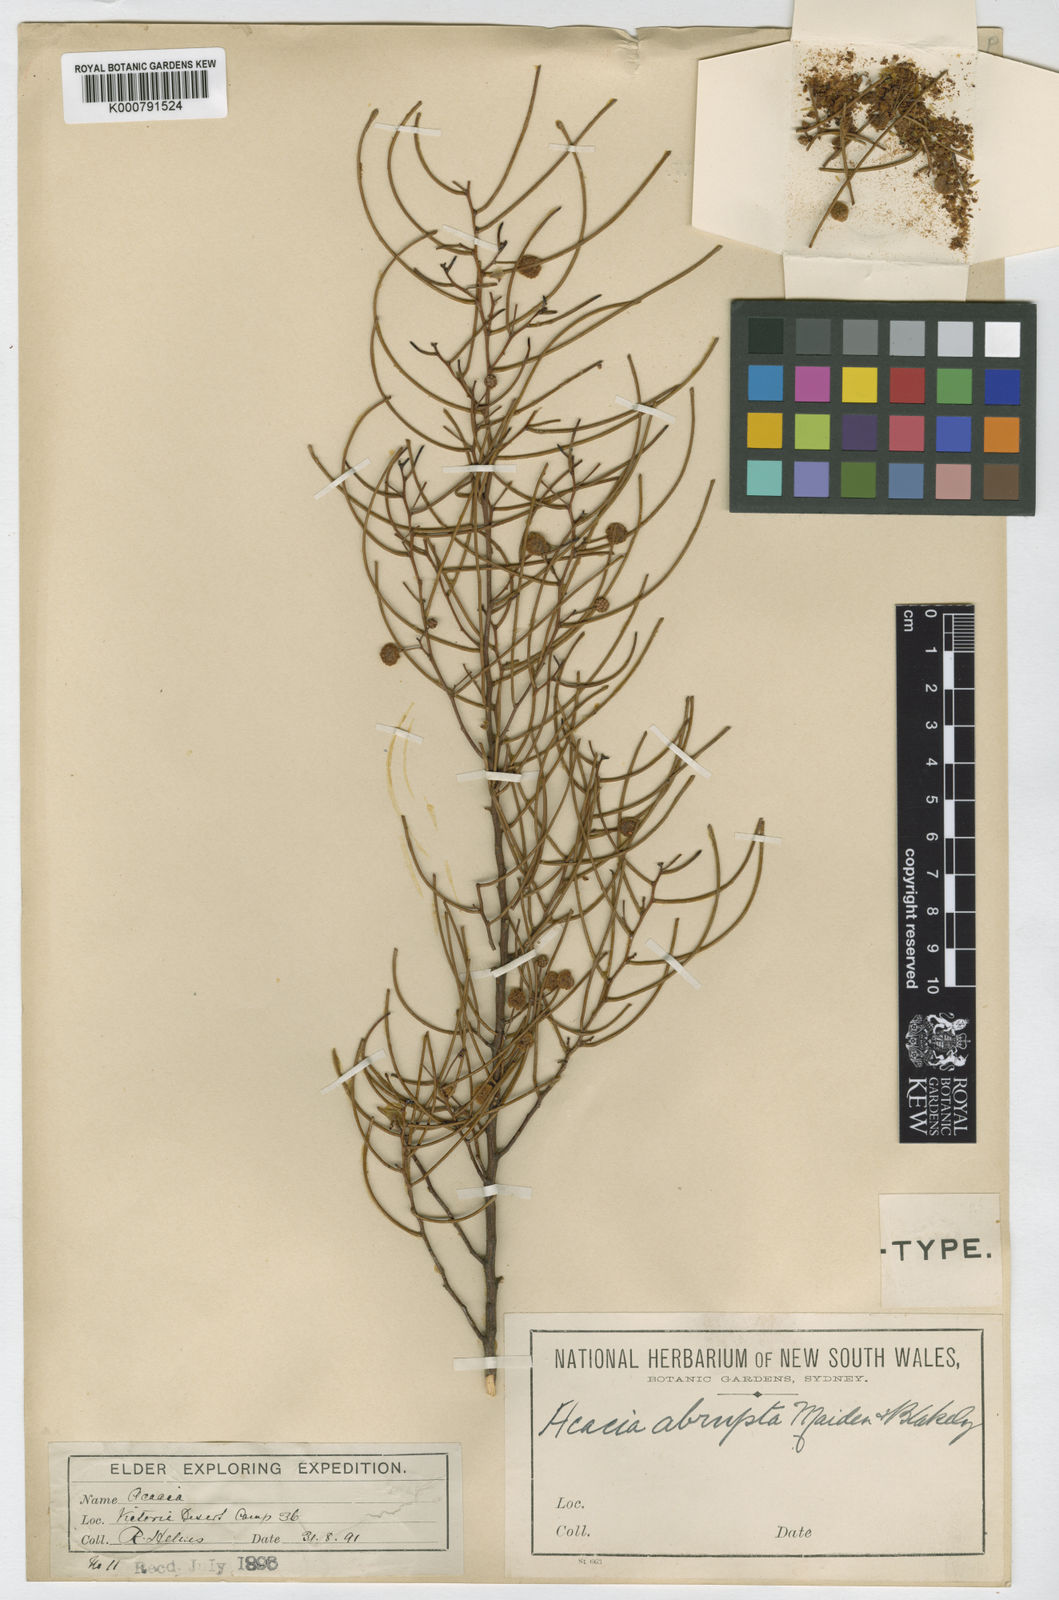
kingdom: Plantae
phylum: Tracheophyta
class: Magnoliopsida
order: Fabales
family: Fabaceae
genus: Acacia
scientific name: Acacia abrupta
